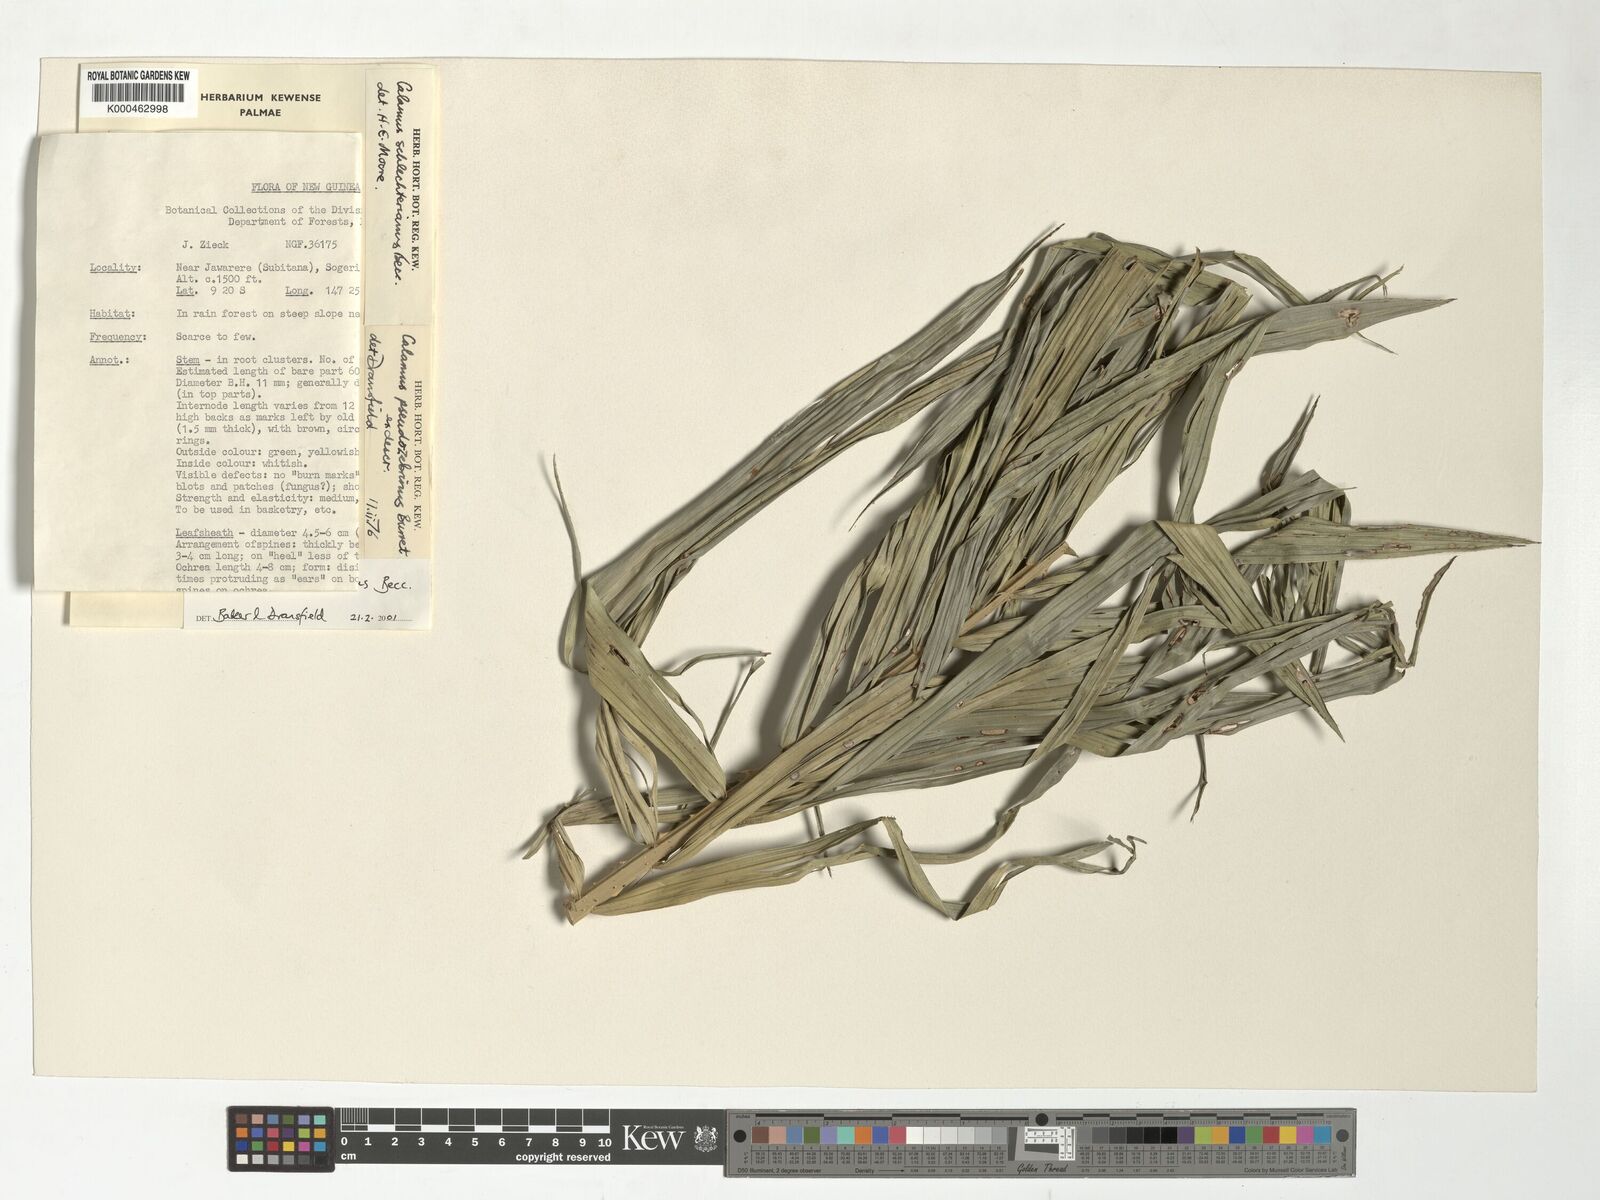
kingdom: Plantae
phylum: Tracheophyta
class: Liliopsida
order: Arecales
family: Arecaceae
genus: Calamus
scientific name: Calamus schlechterianus
